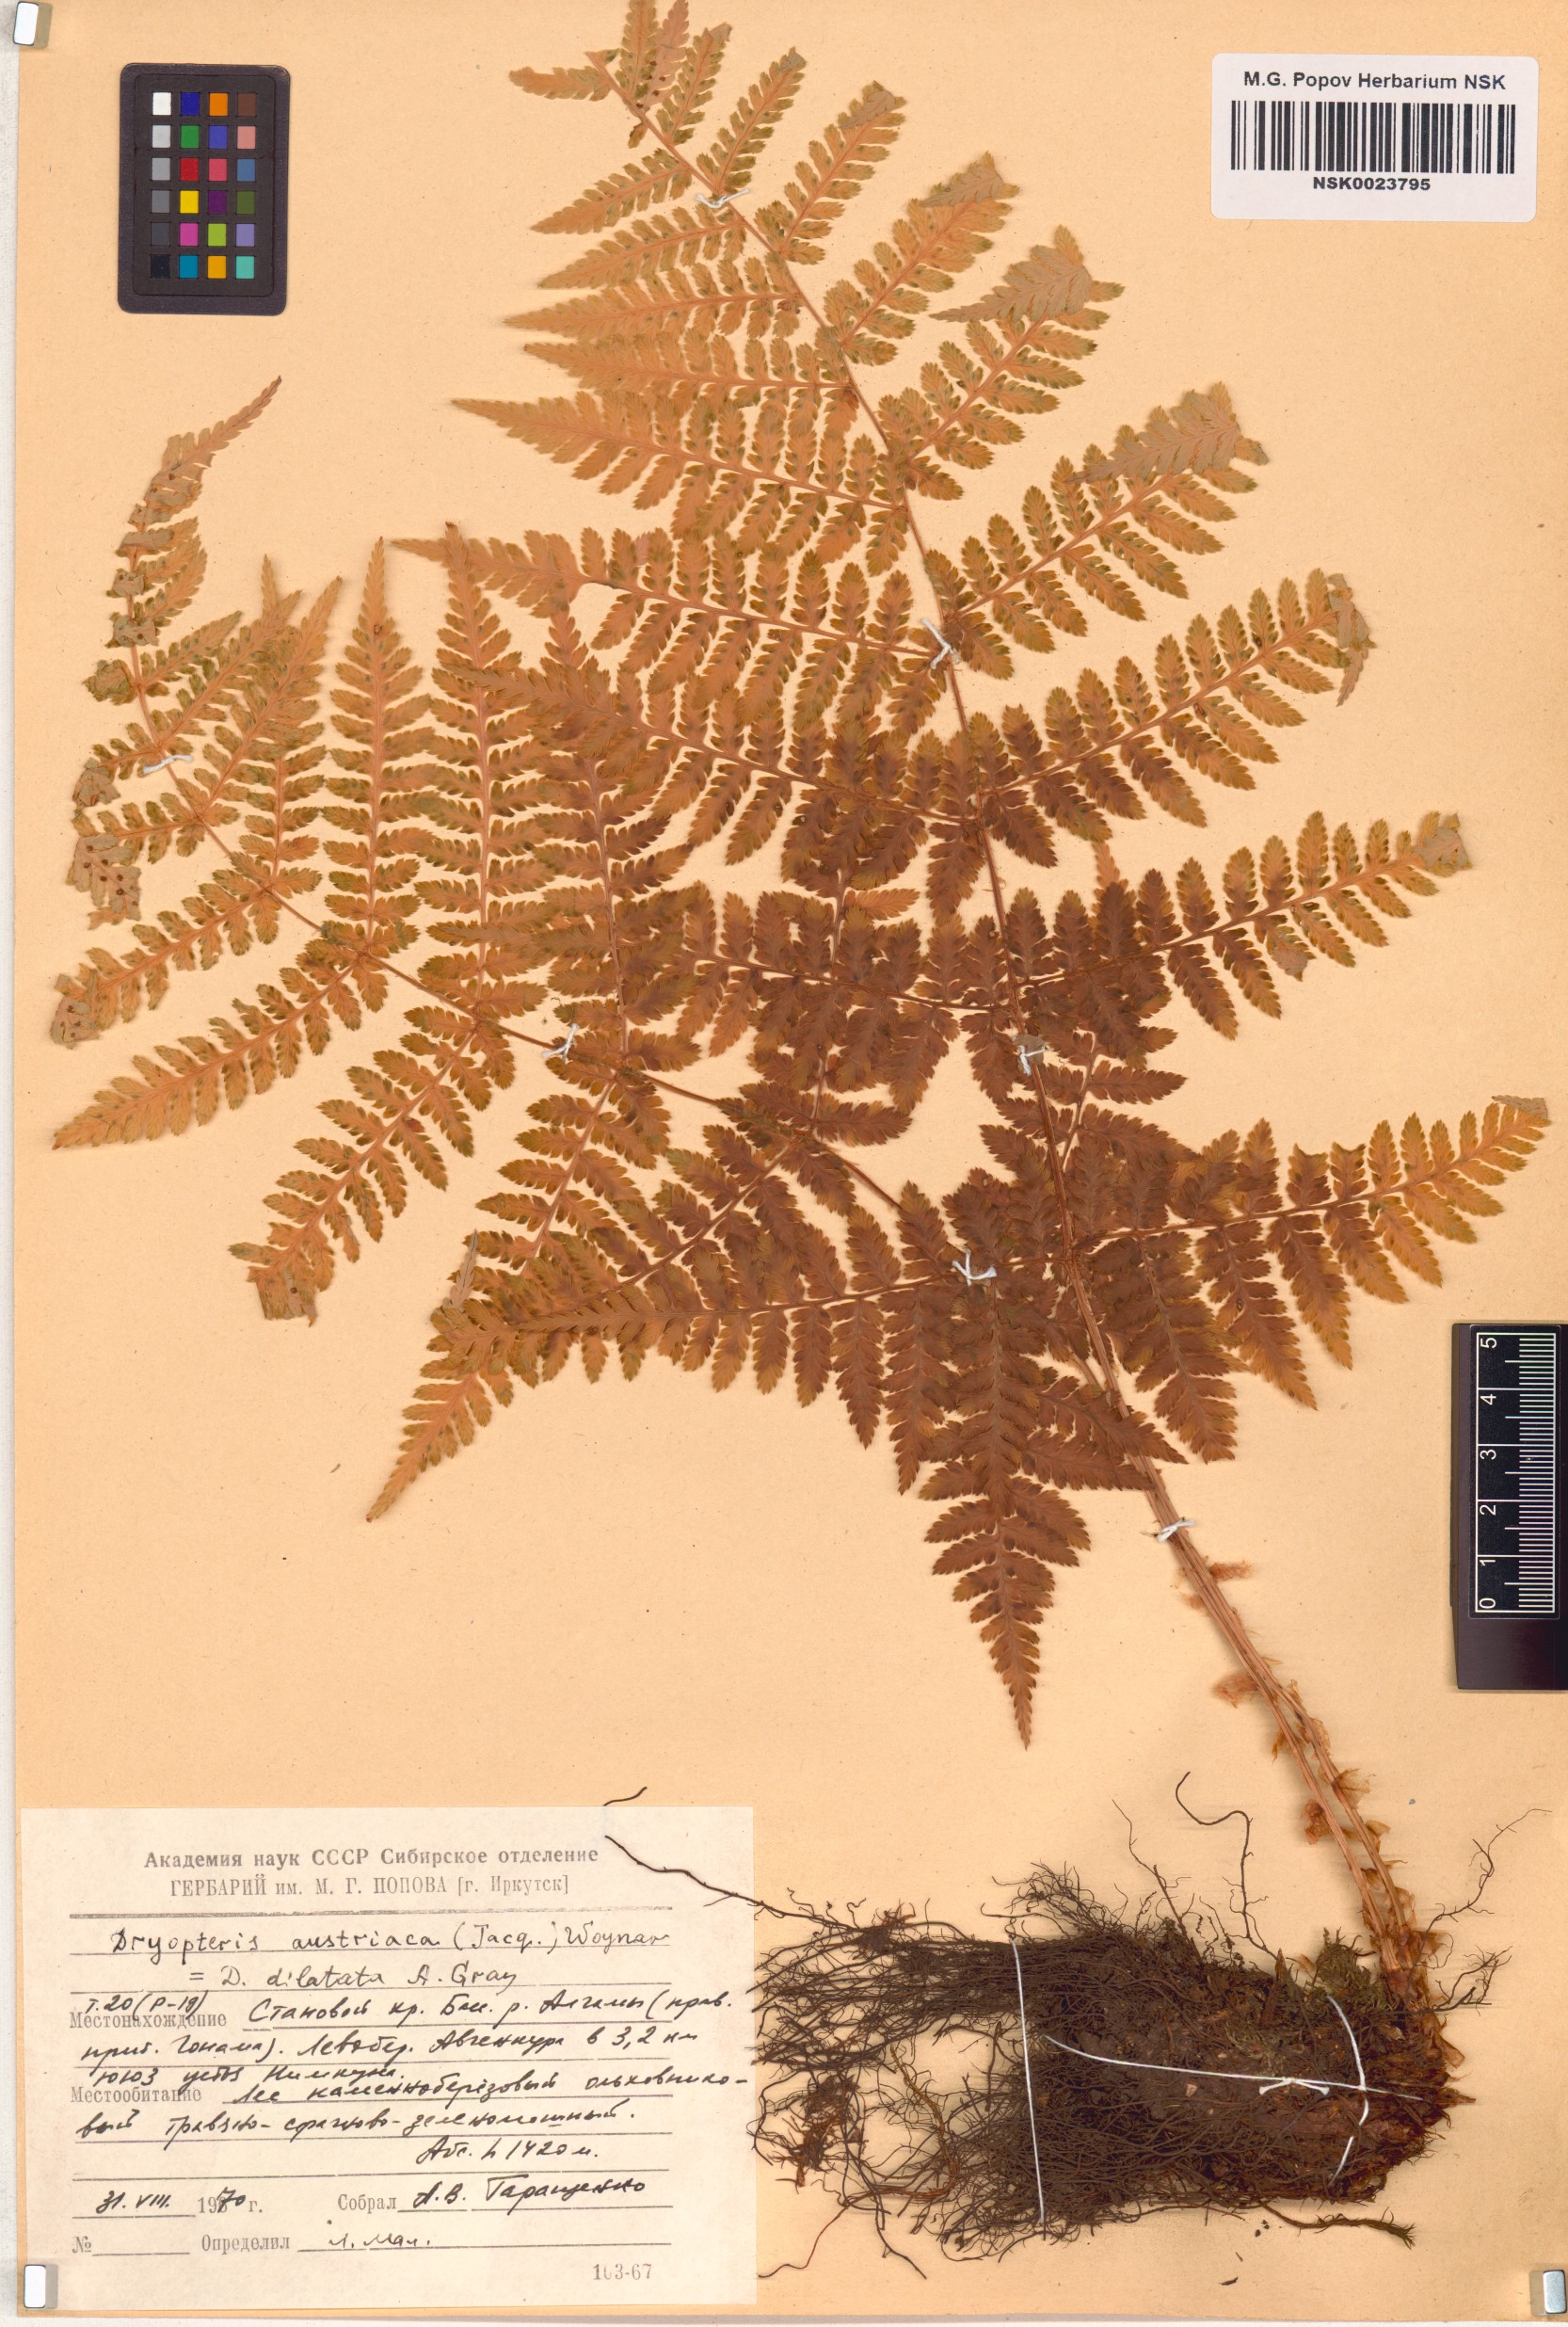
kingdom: Plantae
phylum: Tracheophyta
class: Polypodiopsida
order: Polypodiales
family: Dryopteridaceae
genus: Dryopteris
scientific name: Dryopteris dilatata
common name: Broad buckler-fern
